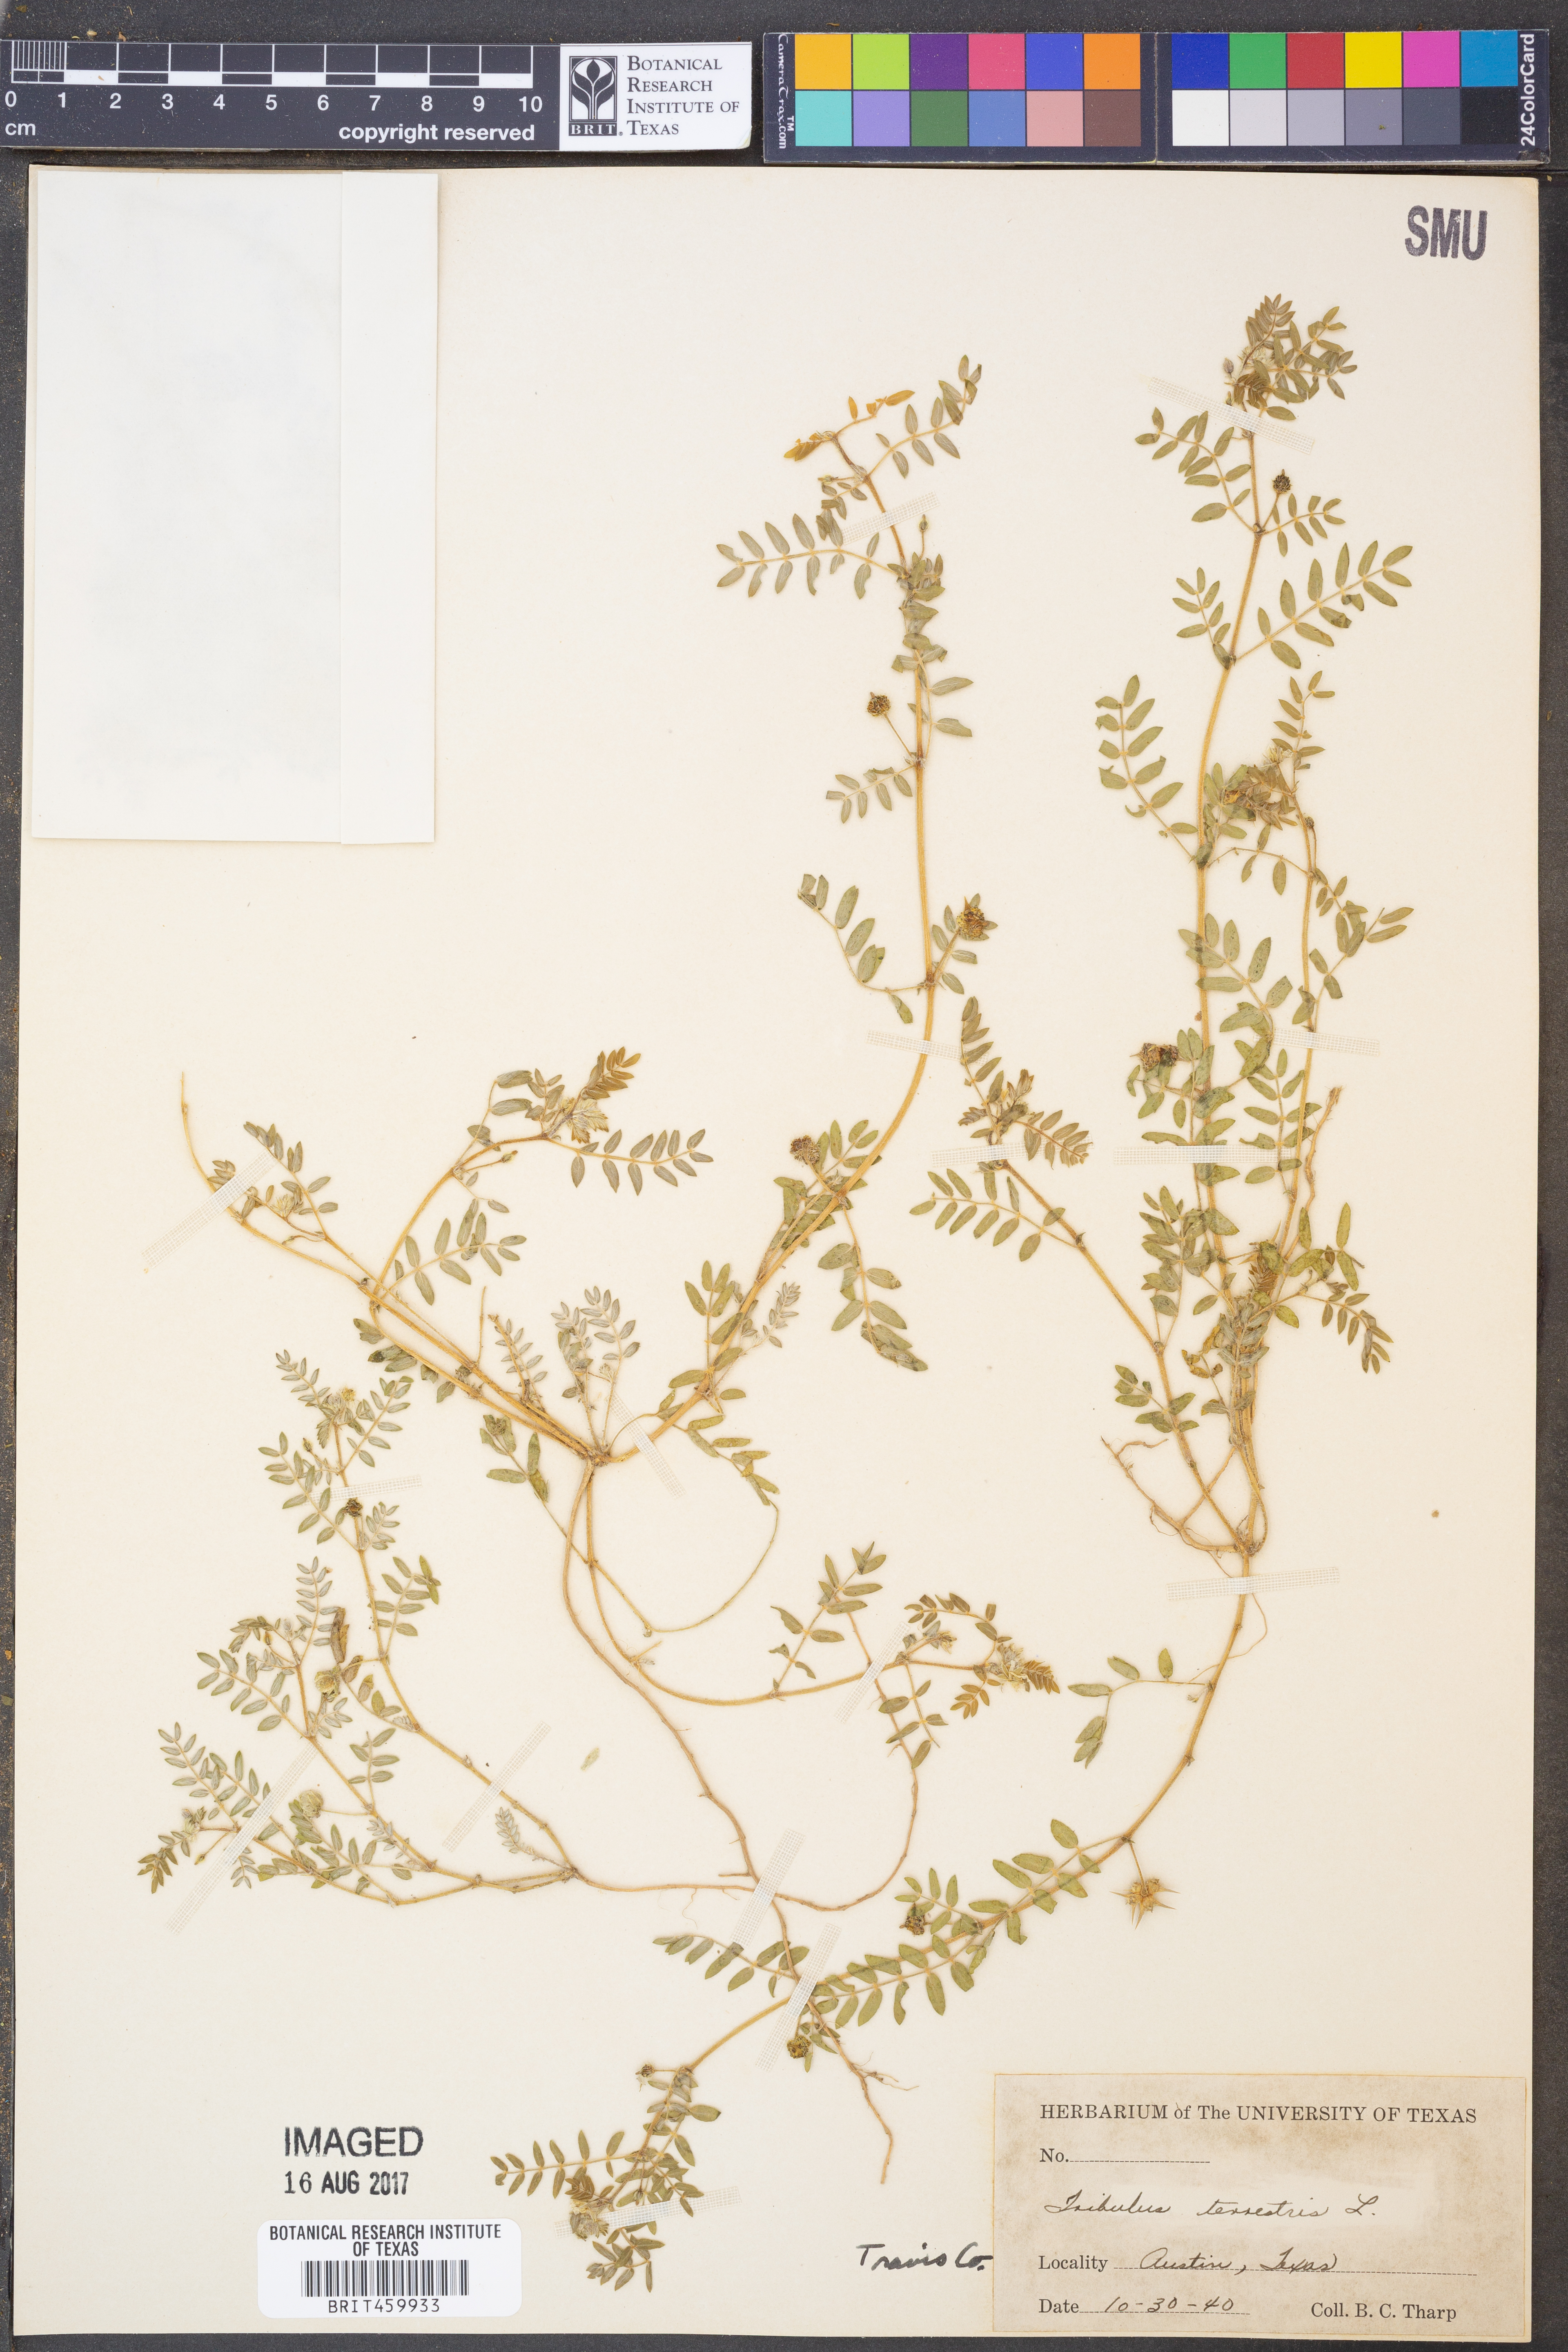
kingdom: Plantae
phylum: Tracheophyta
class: Magnoliopsida
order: Zygophyllales
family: Zygophyllaceae
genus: Tribulus
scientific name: Tribulus terrestris
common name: Puncturevine
